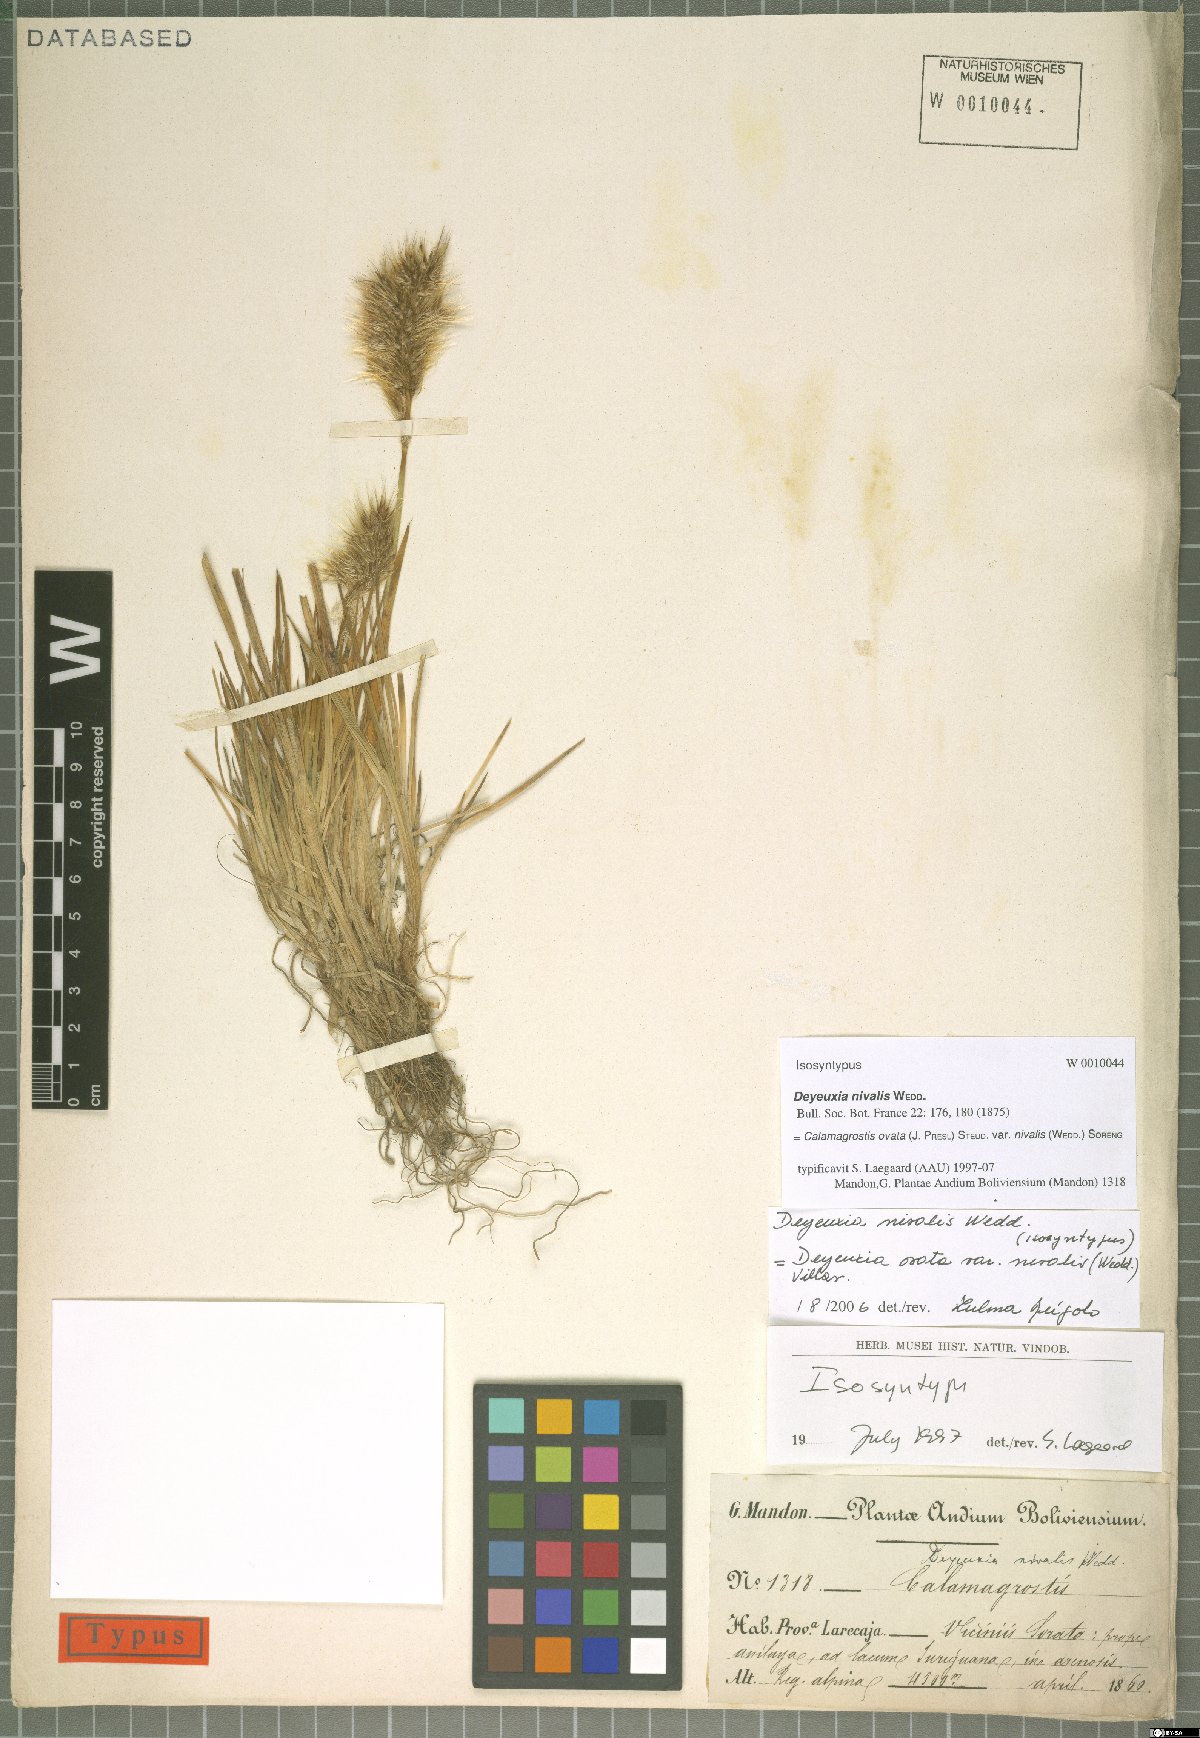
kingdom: Plantae
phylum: Tracheophyta
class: Liliopsida
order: Poales
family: Poaceae
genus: Deschampsia
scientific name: Deschampsia ovata
